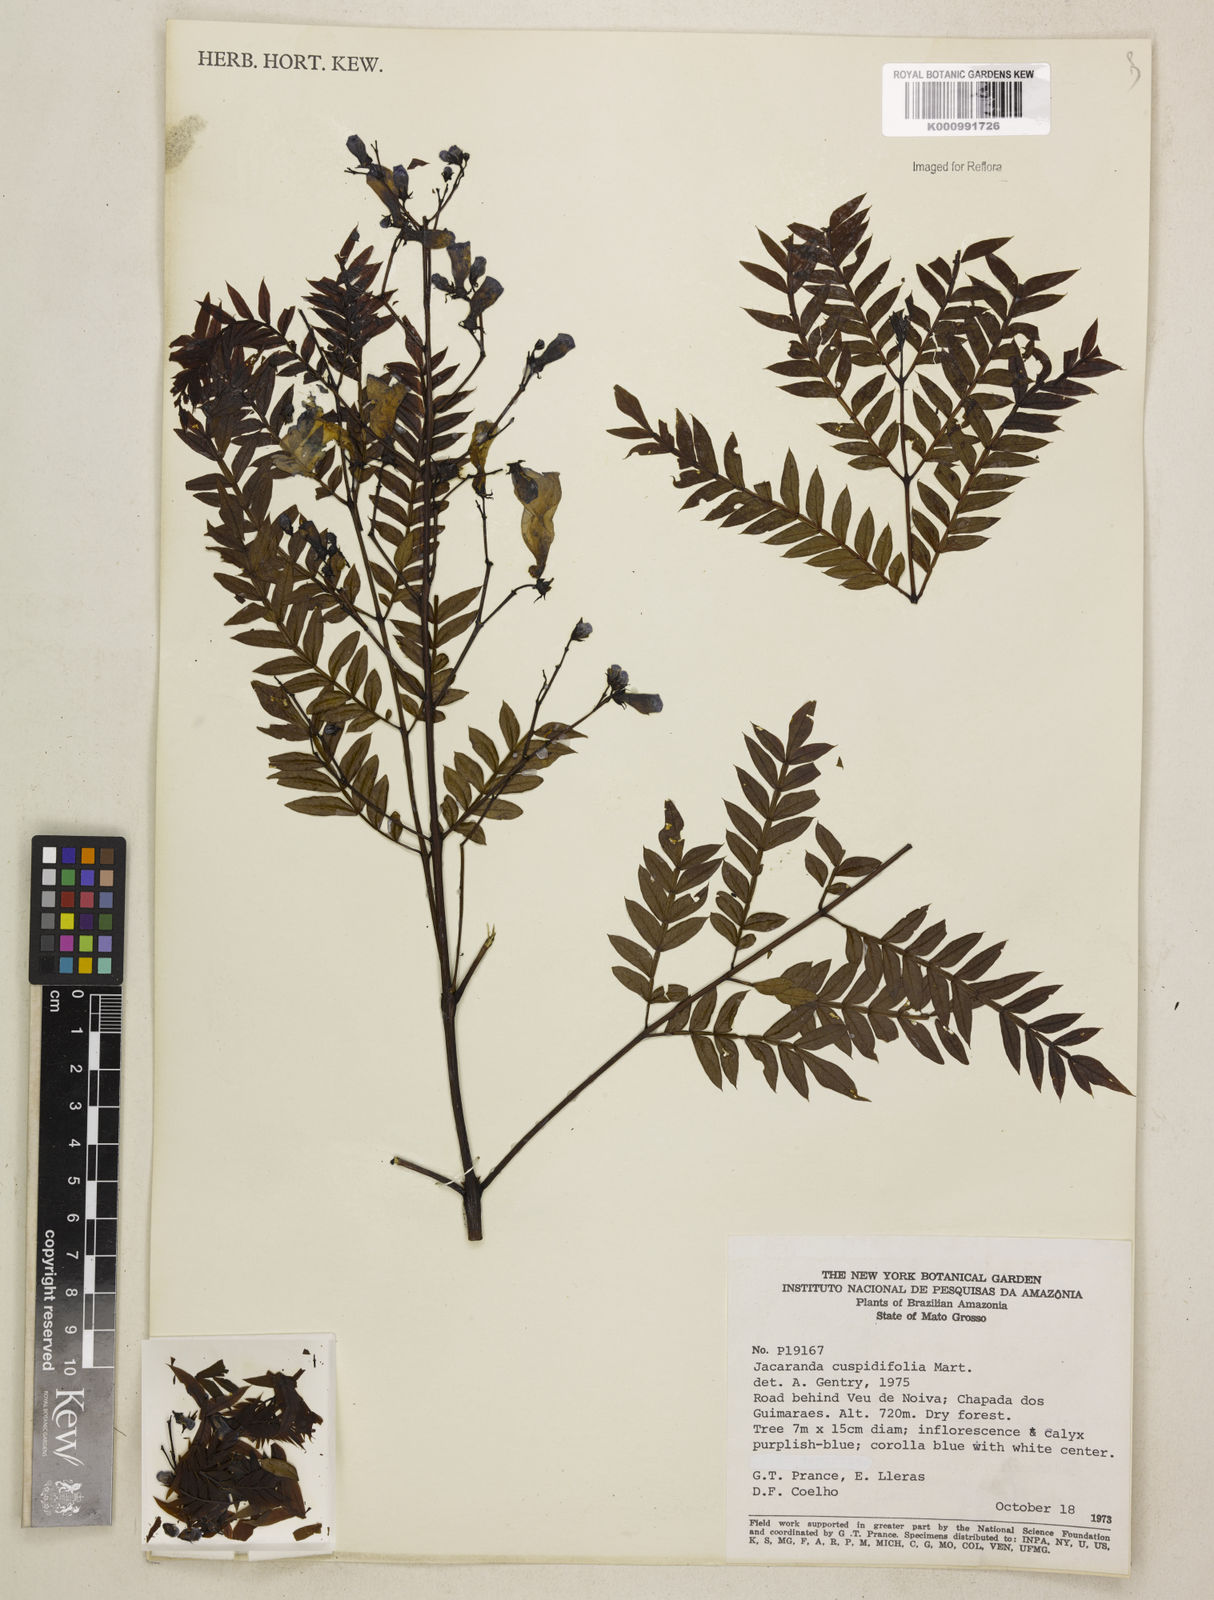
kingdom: Plantae
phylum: Tracheophyta
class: Magnoliopsida
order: Lamiales
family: Bignoniaceae
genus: Jacaranda
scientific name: Jacaranda cuspidifolia
